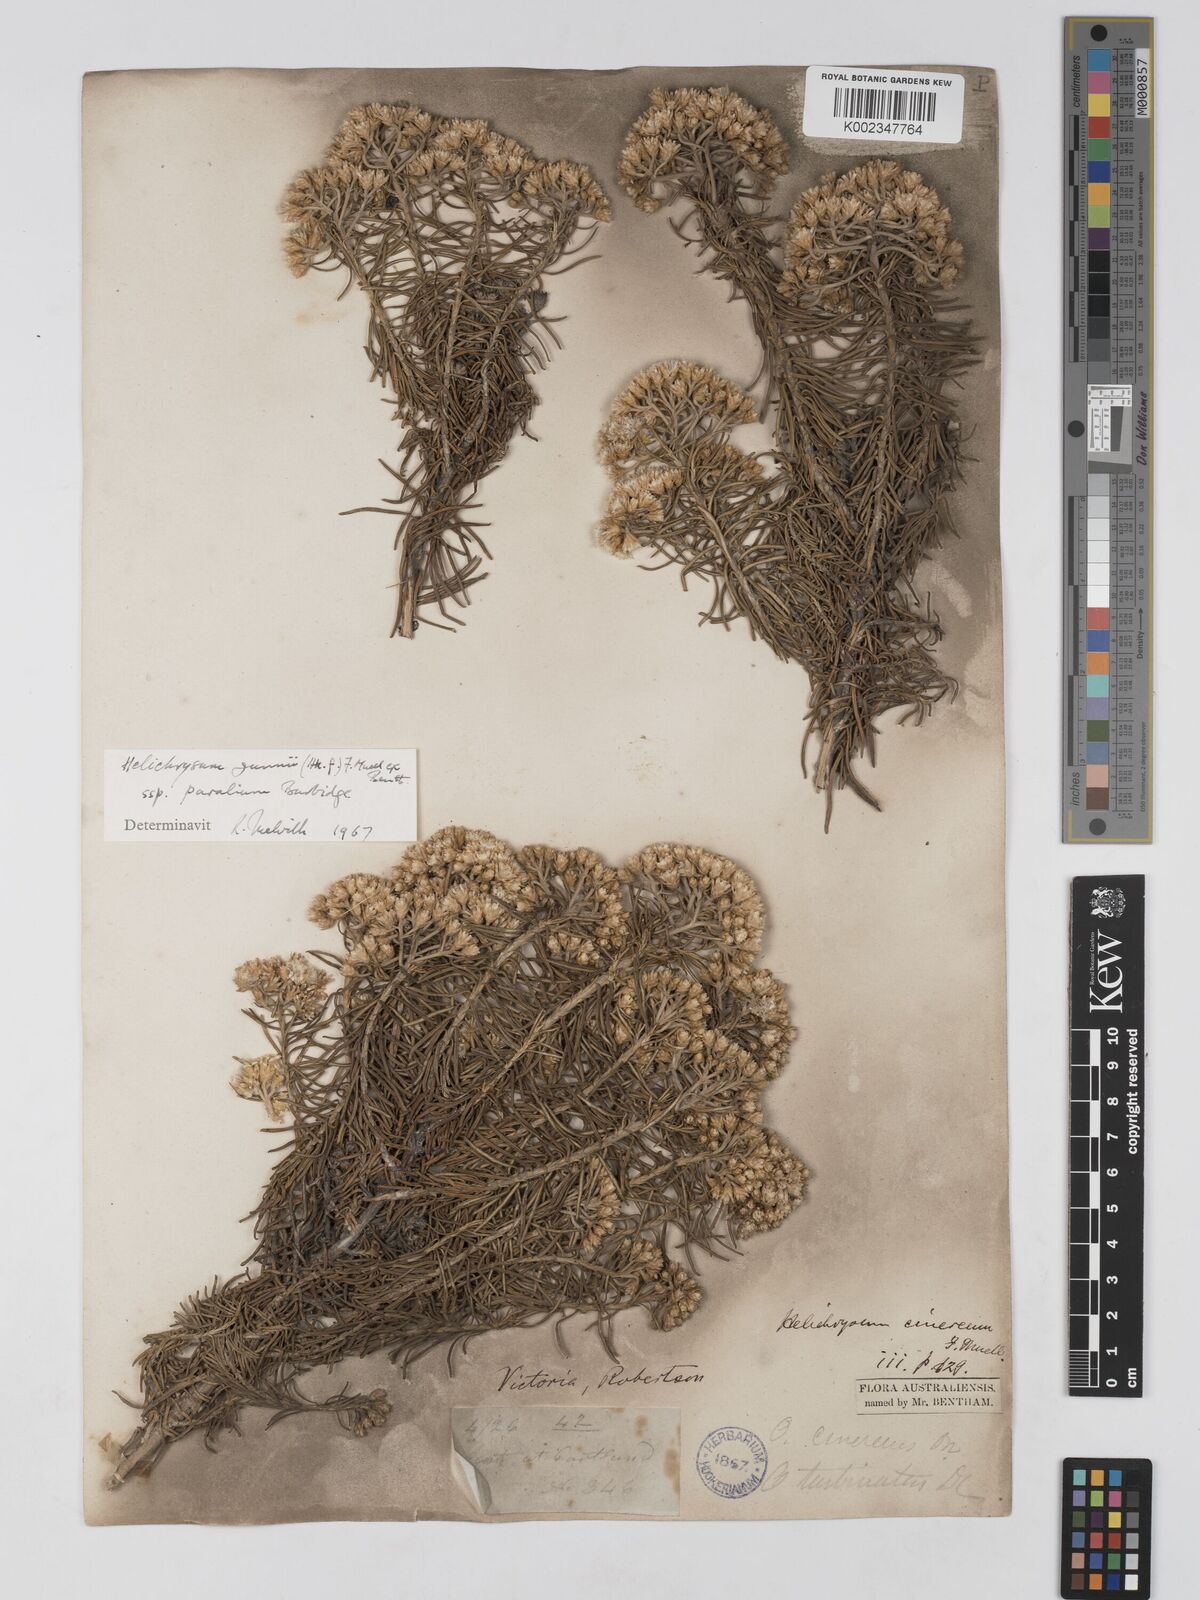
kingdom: Plantae
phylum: Tracheophyta
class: Magnoliopsida
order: Asterales
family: Asteraceae
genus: Ozothamnus
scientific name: Ozothamnus gunnii
